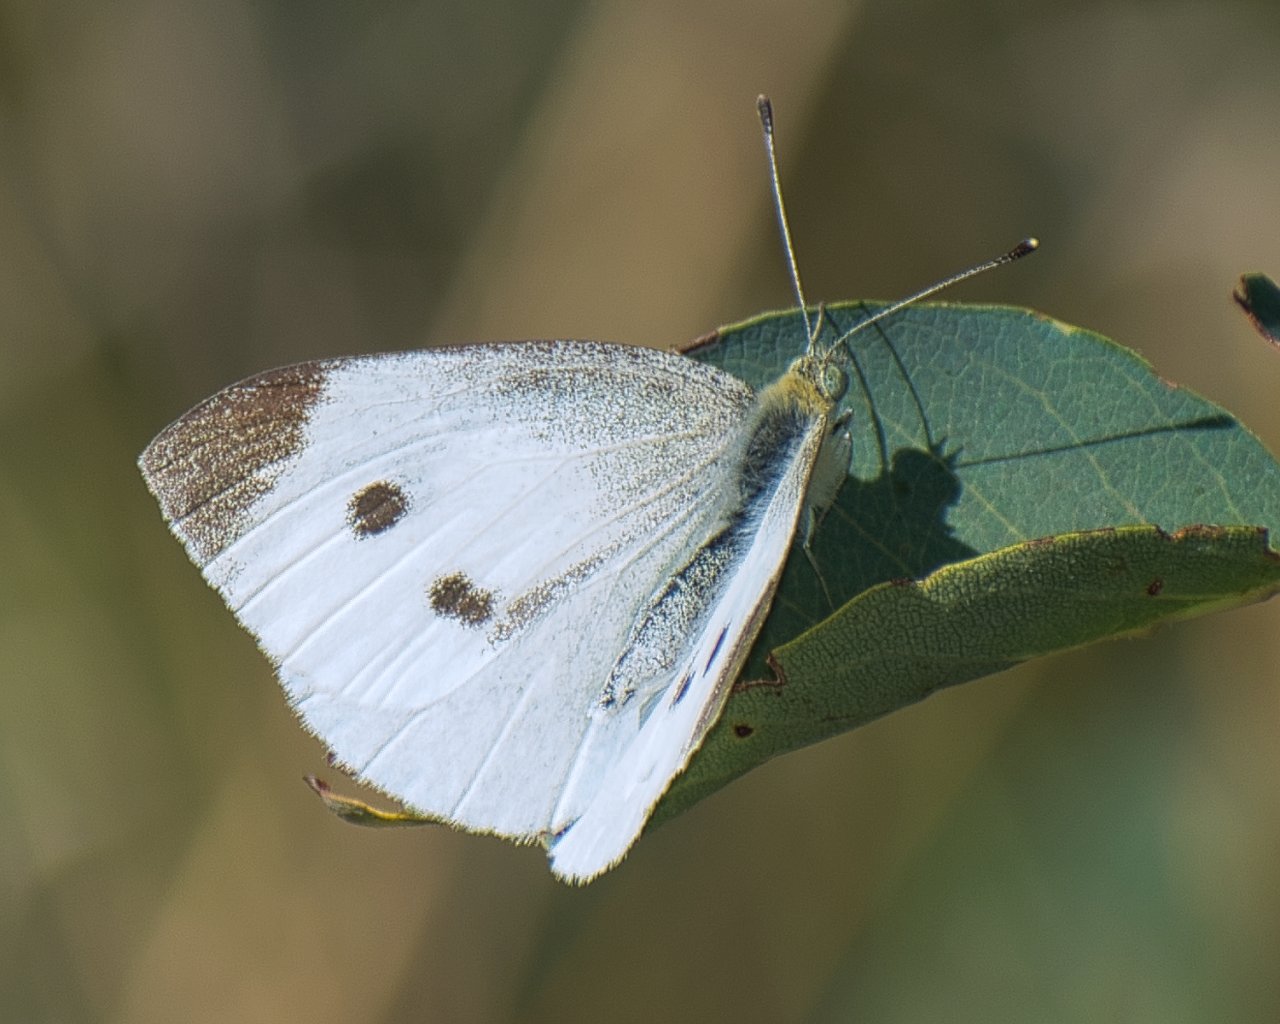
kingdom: Animalia
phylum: Arthropoda
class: Insecta
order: Lepidoptera
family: Pieridae
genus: Pieris
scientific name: Pieris rapae
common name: Cabbage White
